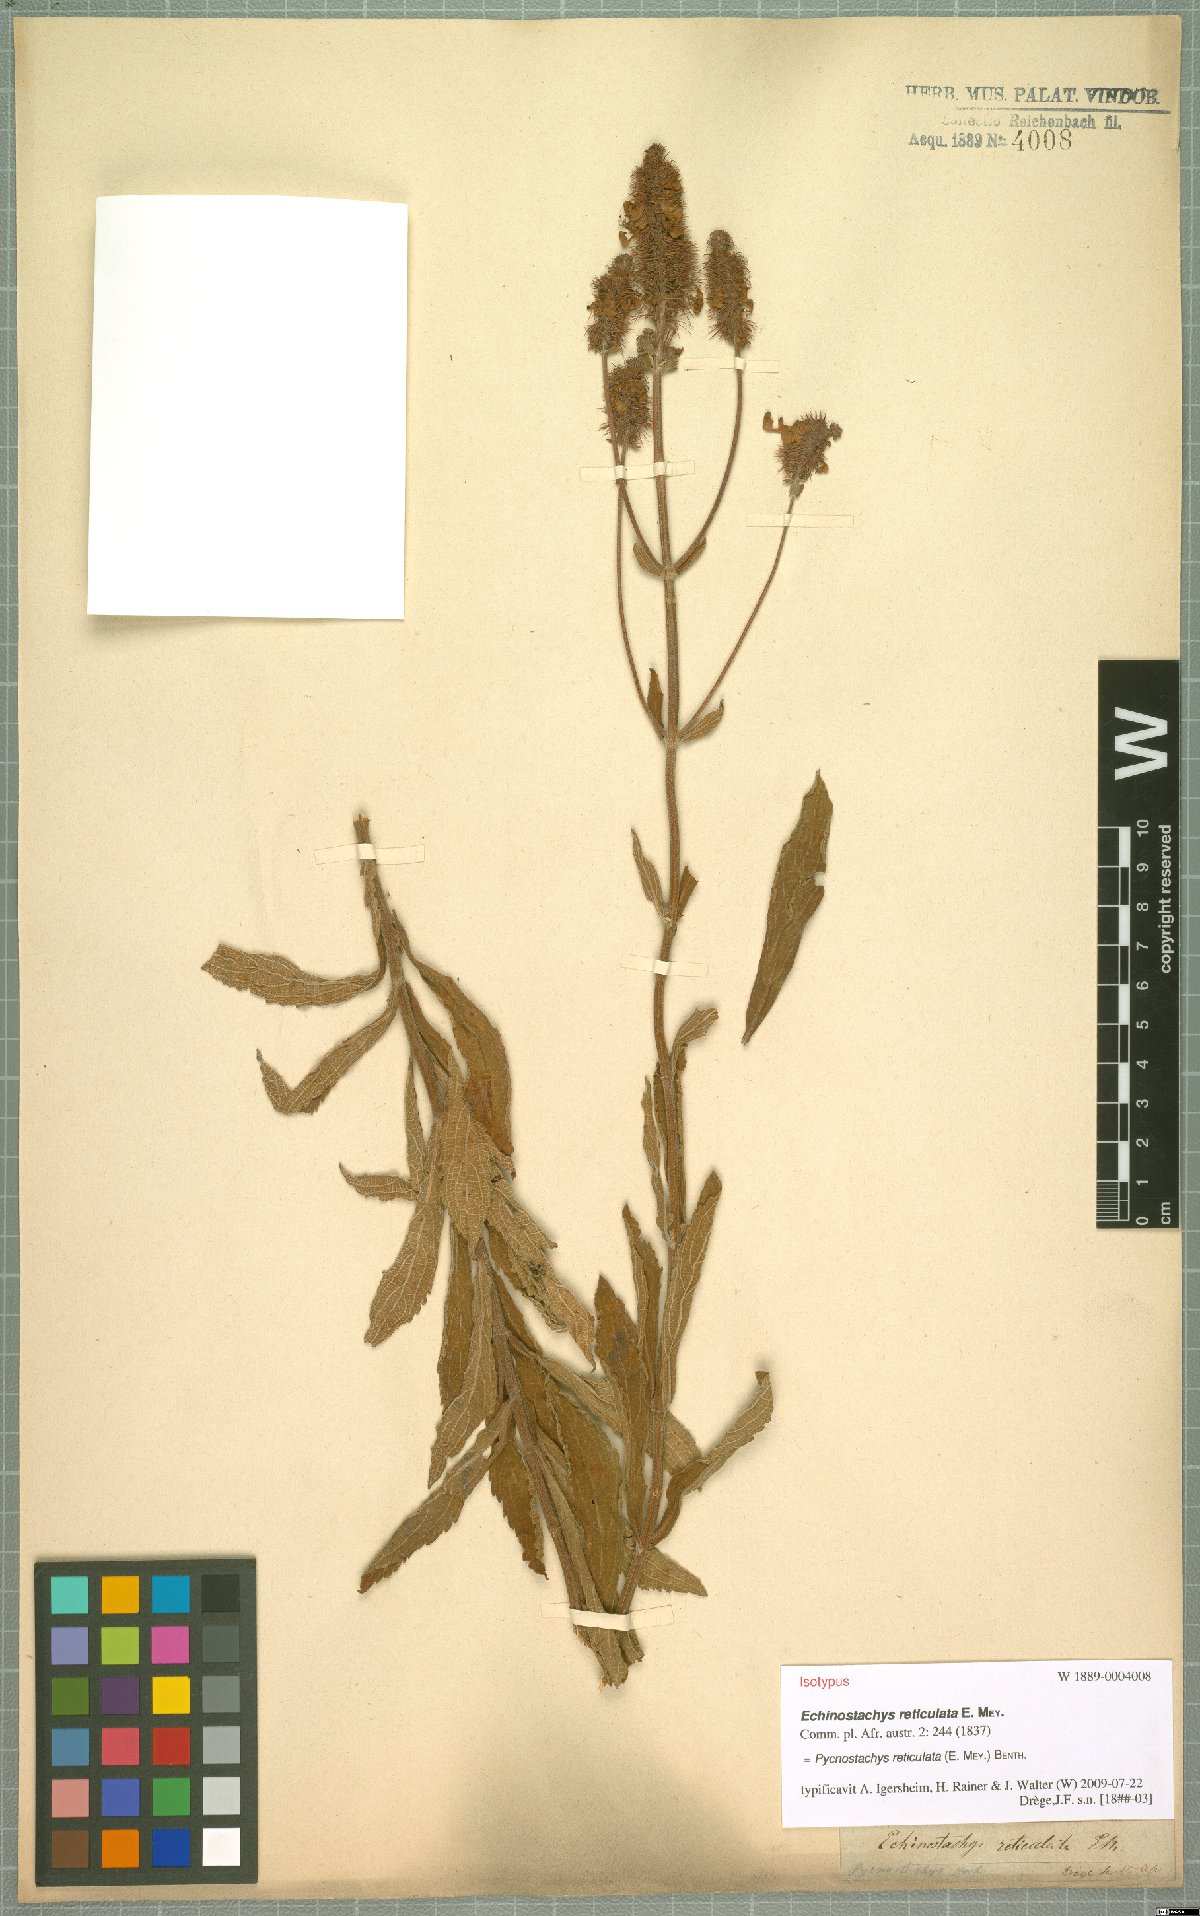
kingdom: Plantae
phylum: Tracheophyta
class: Magnoliopsida
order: Lamiales
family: Lamiaceae
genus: Coleus
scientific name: Coleus kirkii
